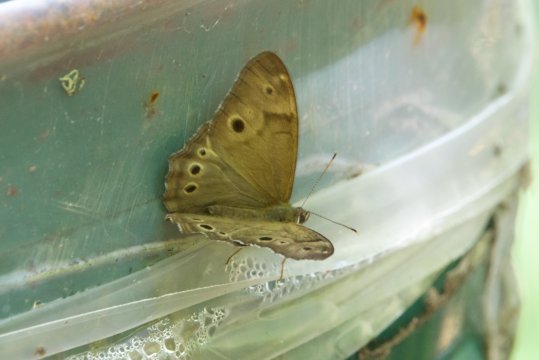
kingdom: Animalia
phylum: Arthropoda
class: Insecta
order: Lepidoptera
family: Nymphalidae
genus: Lethe
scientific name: Lethe anthedon
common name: Northern Pearly-Eye
